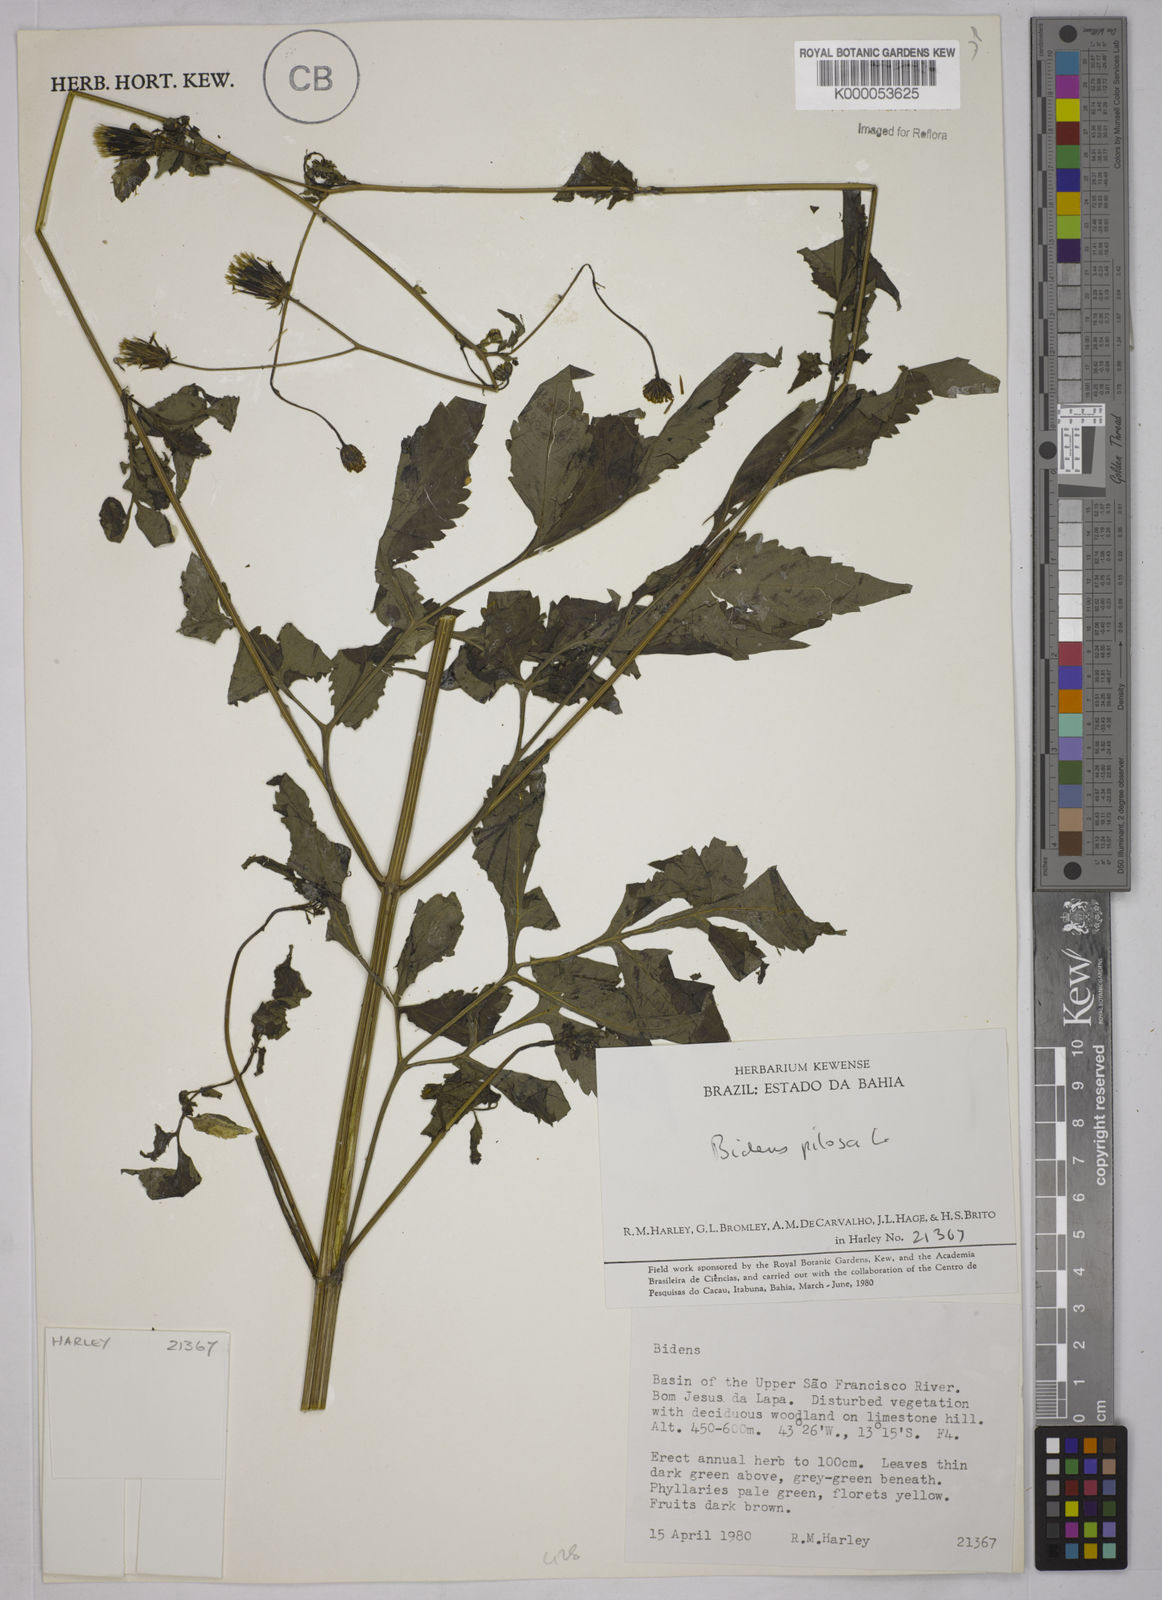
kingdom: Plantae
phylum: Tracheophyta
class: Magnoliopsida
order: Asterales
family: Asteraceae
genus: Bidens
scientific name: Bidens pilosa
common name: Black-jack
